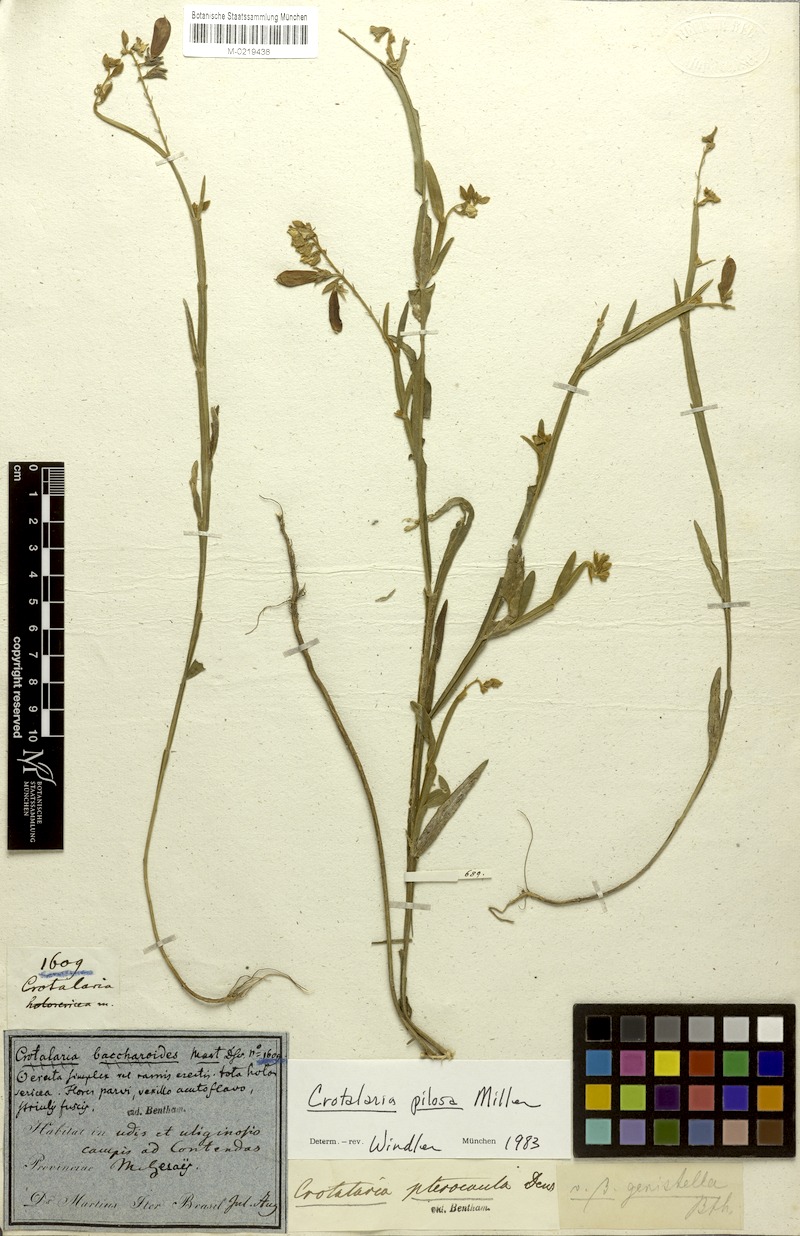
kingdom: Plantae
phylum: Tracheophyta
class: Magnoliopsida
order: Fabales
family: Fabaceae
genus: Crotalaria
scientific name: Crotalaria pilosa
